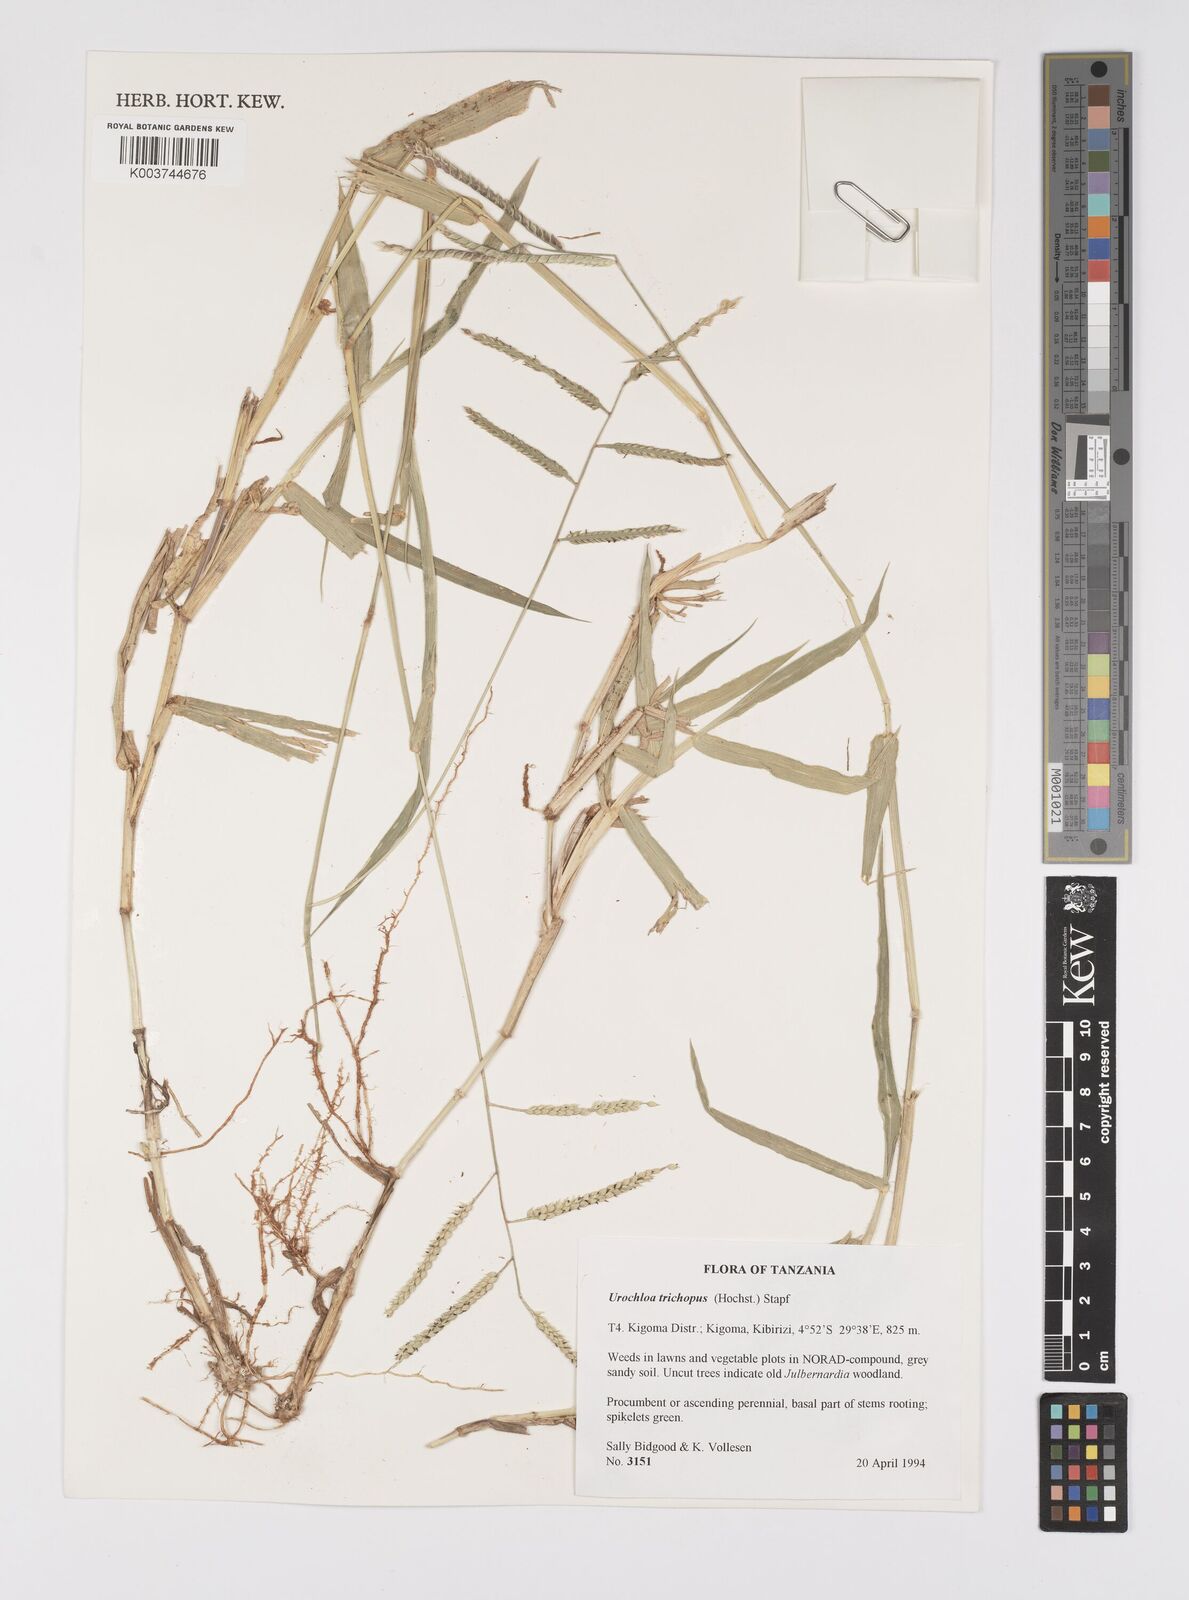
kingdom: Plantae
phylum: Tracheophyta
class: Liliopsida
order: Poales
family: Poaceae
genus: Urochloa
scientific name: Urochloa trichopus
